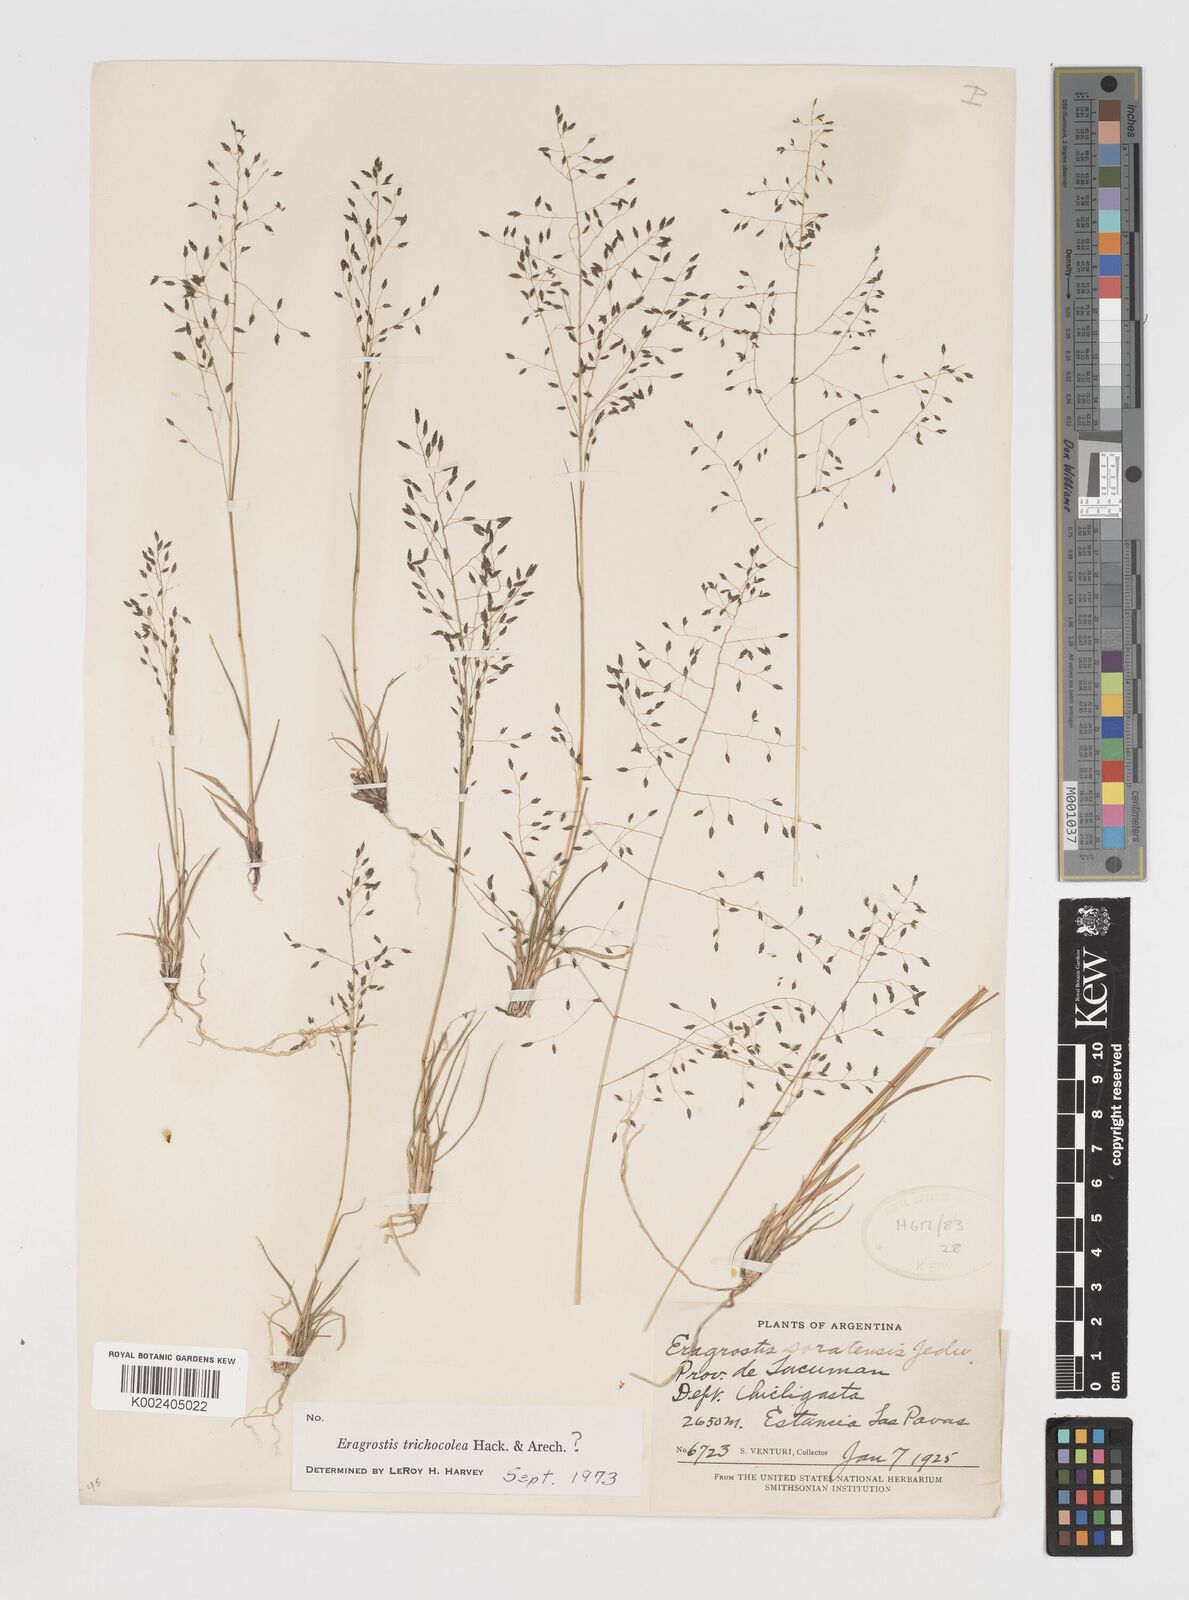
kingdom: Plantae
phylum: Tracheophyta
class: Liliopsida
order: Poales
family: Poaceae
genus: Eragrostis
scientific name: Eragrostis soratensis
